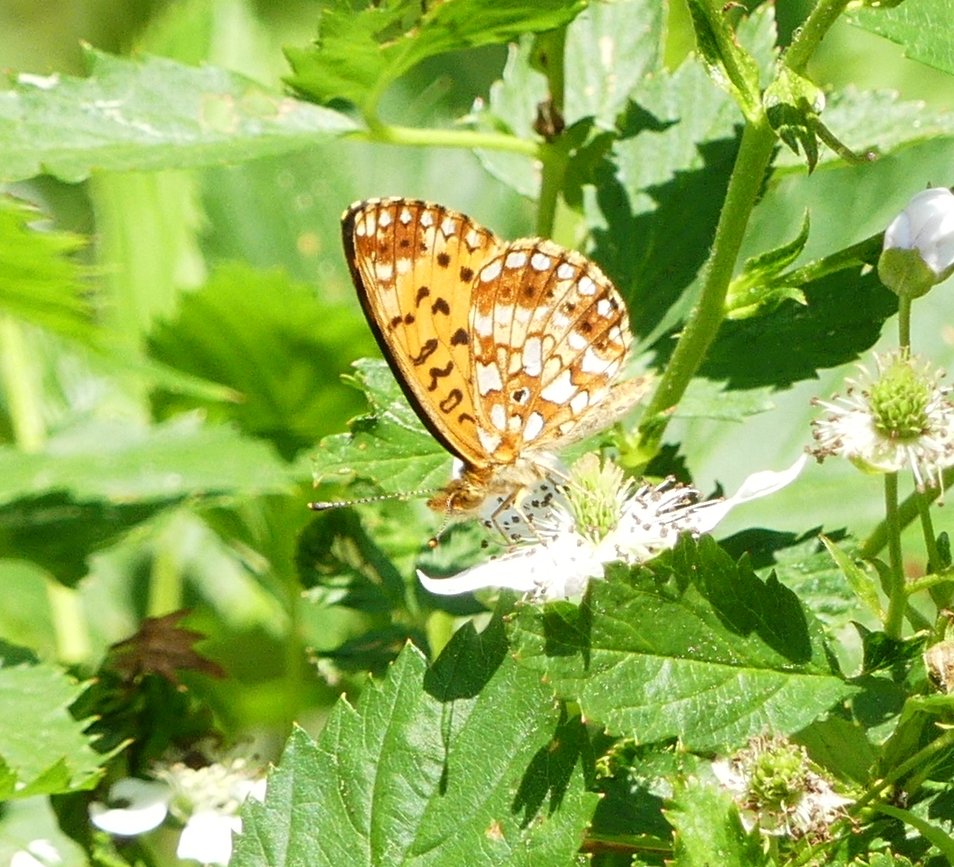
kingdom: Animalia
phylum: Arthropoda
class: Insecta
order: Lepidoptera
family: Nymphalidae
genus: Boloria
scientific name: Boloria selene
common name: Silver-bordered Fritillary
